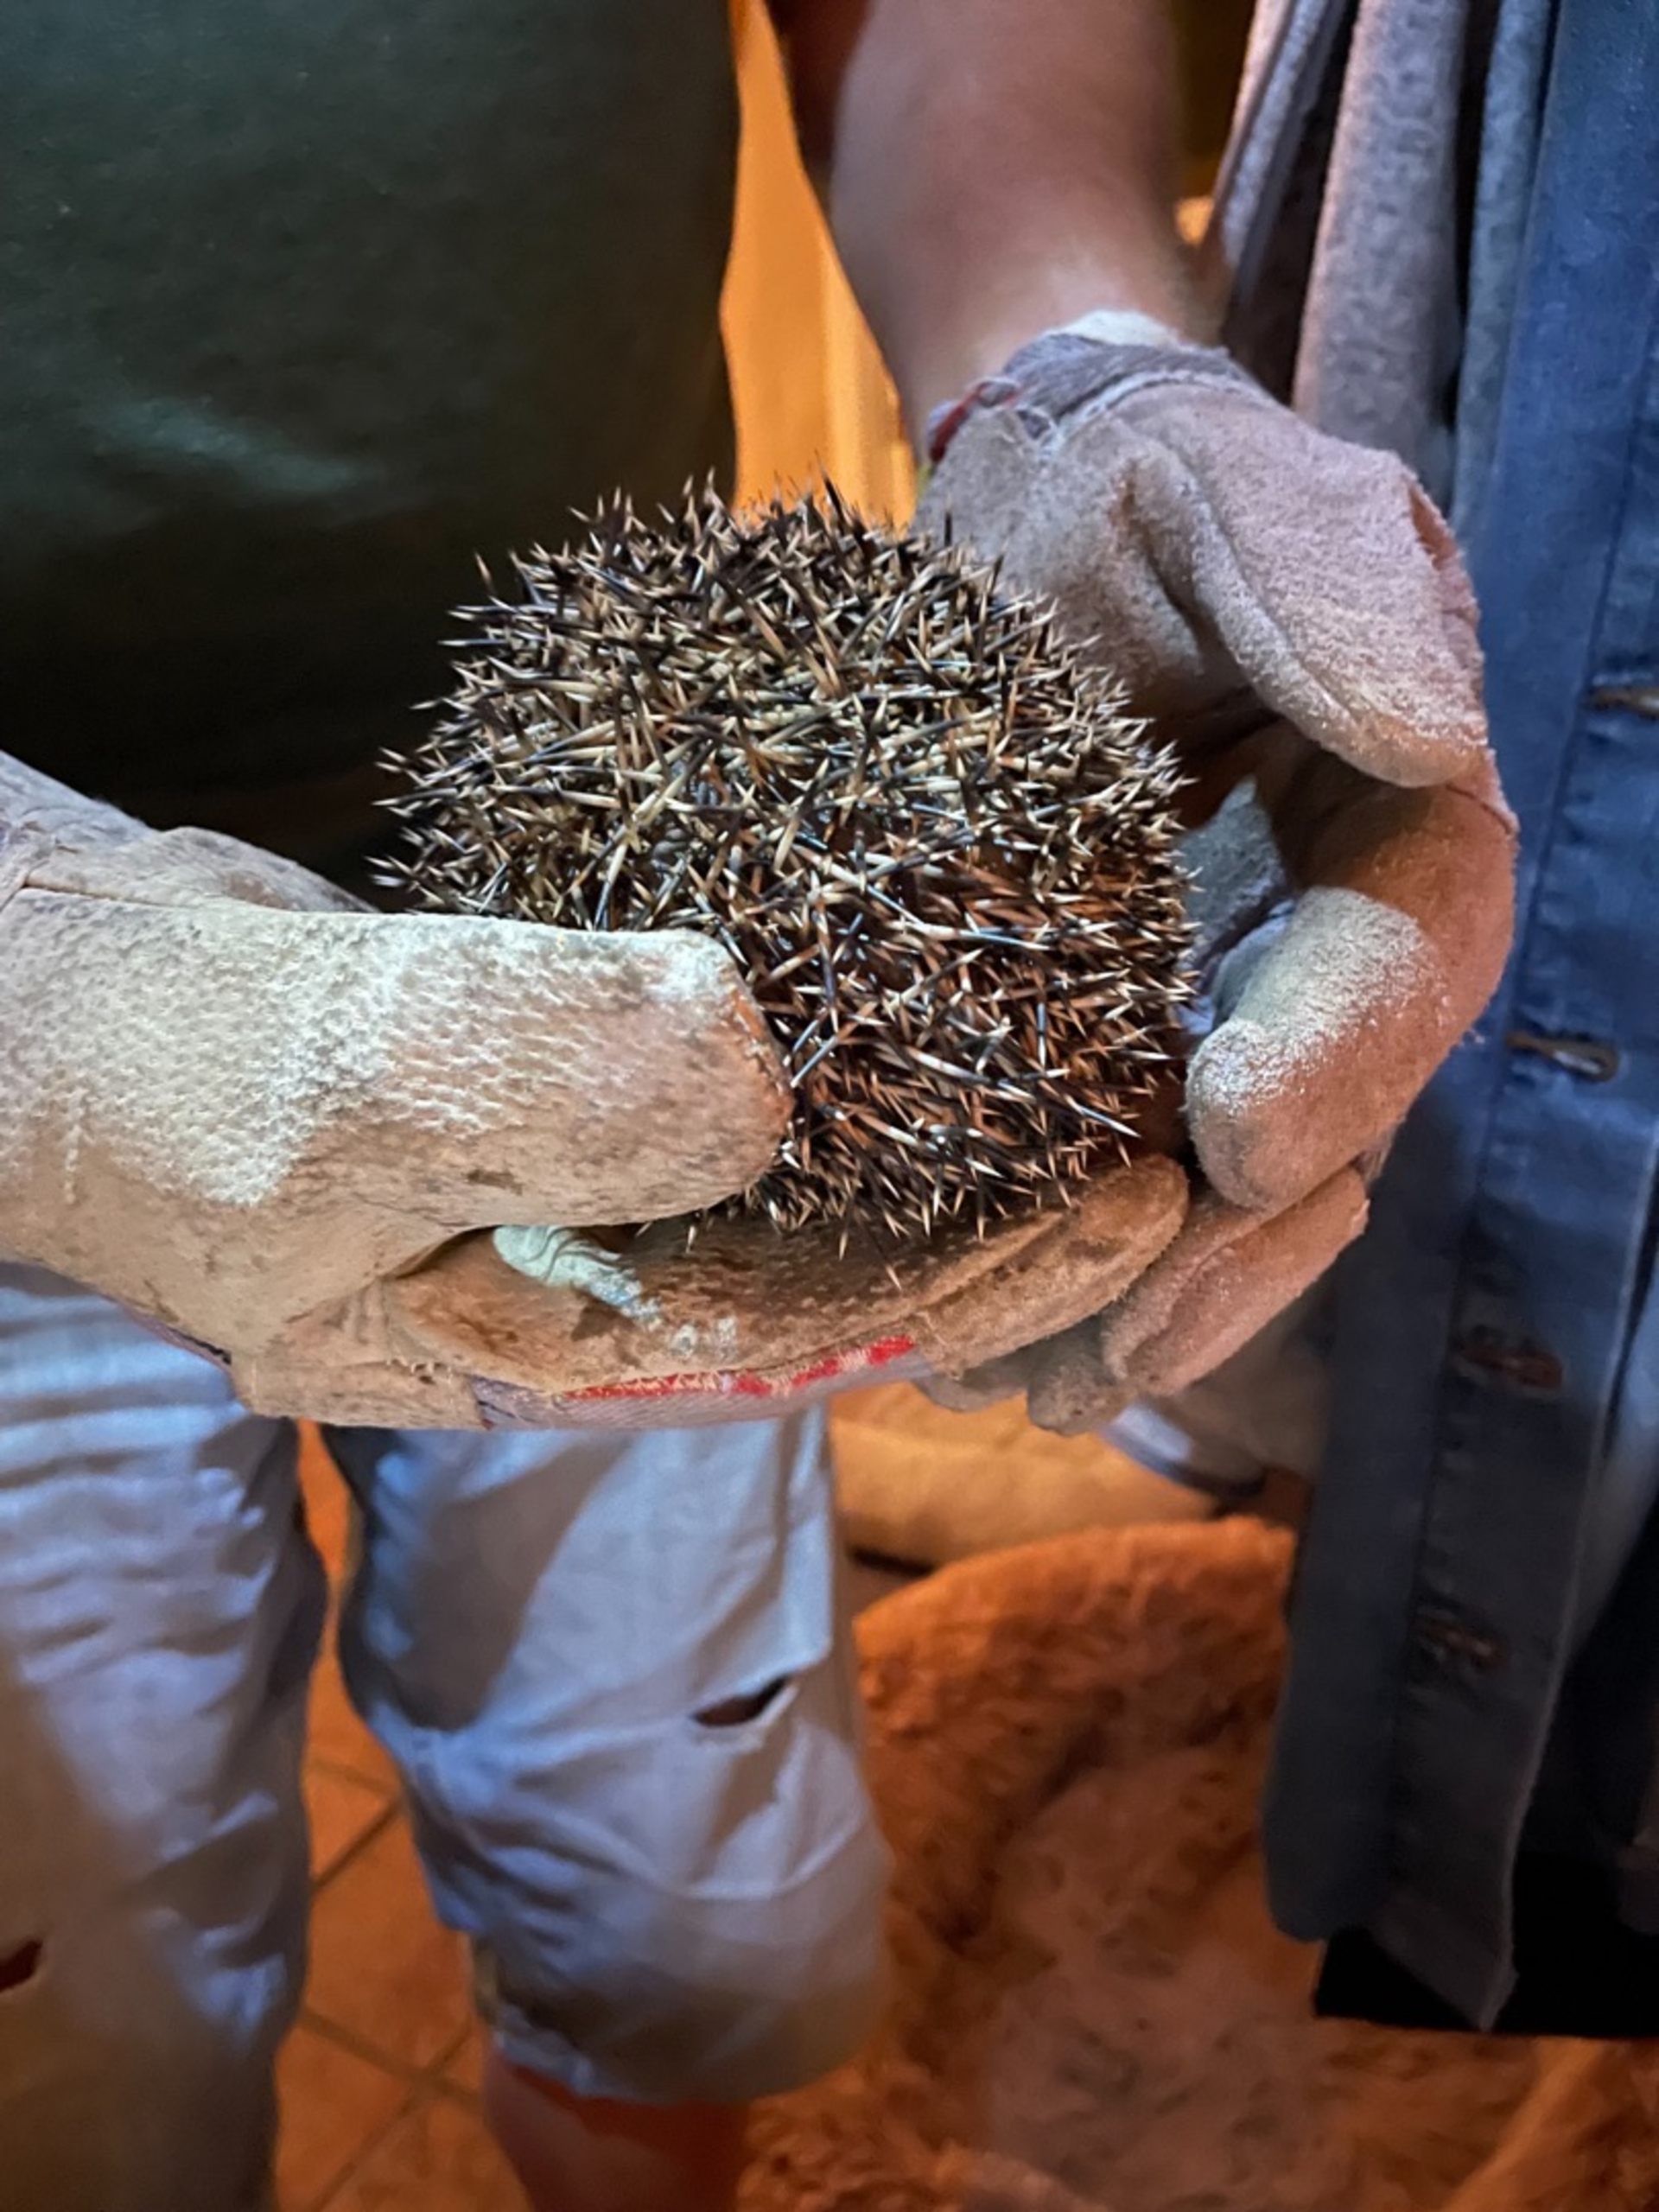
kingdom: Animalia
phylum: Chordata
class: Mammalia
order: Erinaceomorpha
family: Erinaceidae
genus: Erinaceus
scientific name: Erinaceus europaeus
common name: Pindsvin
